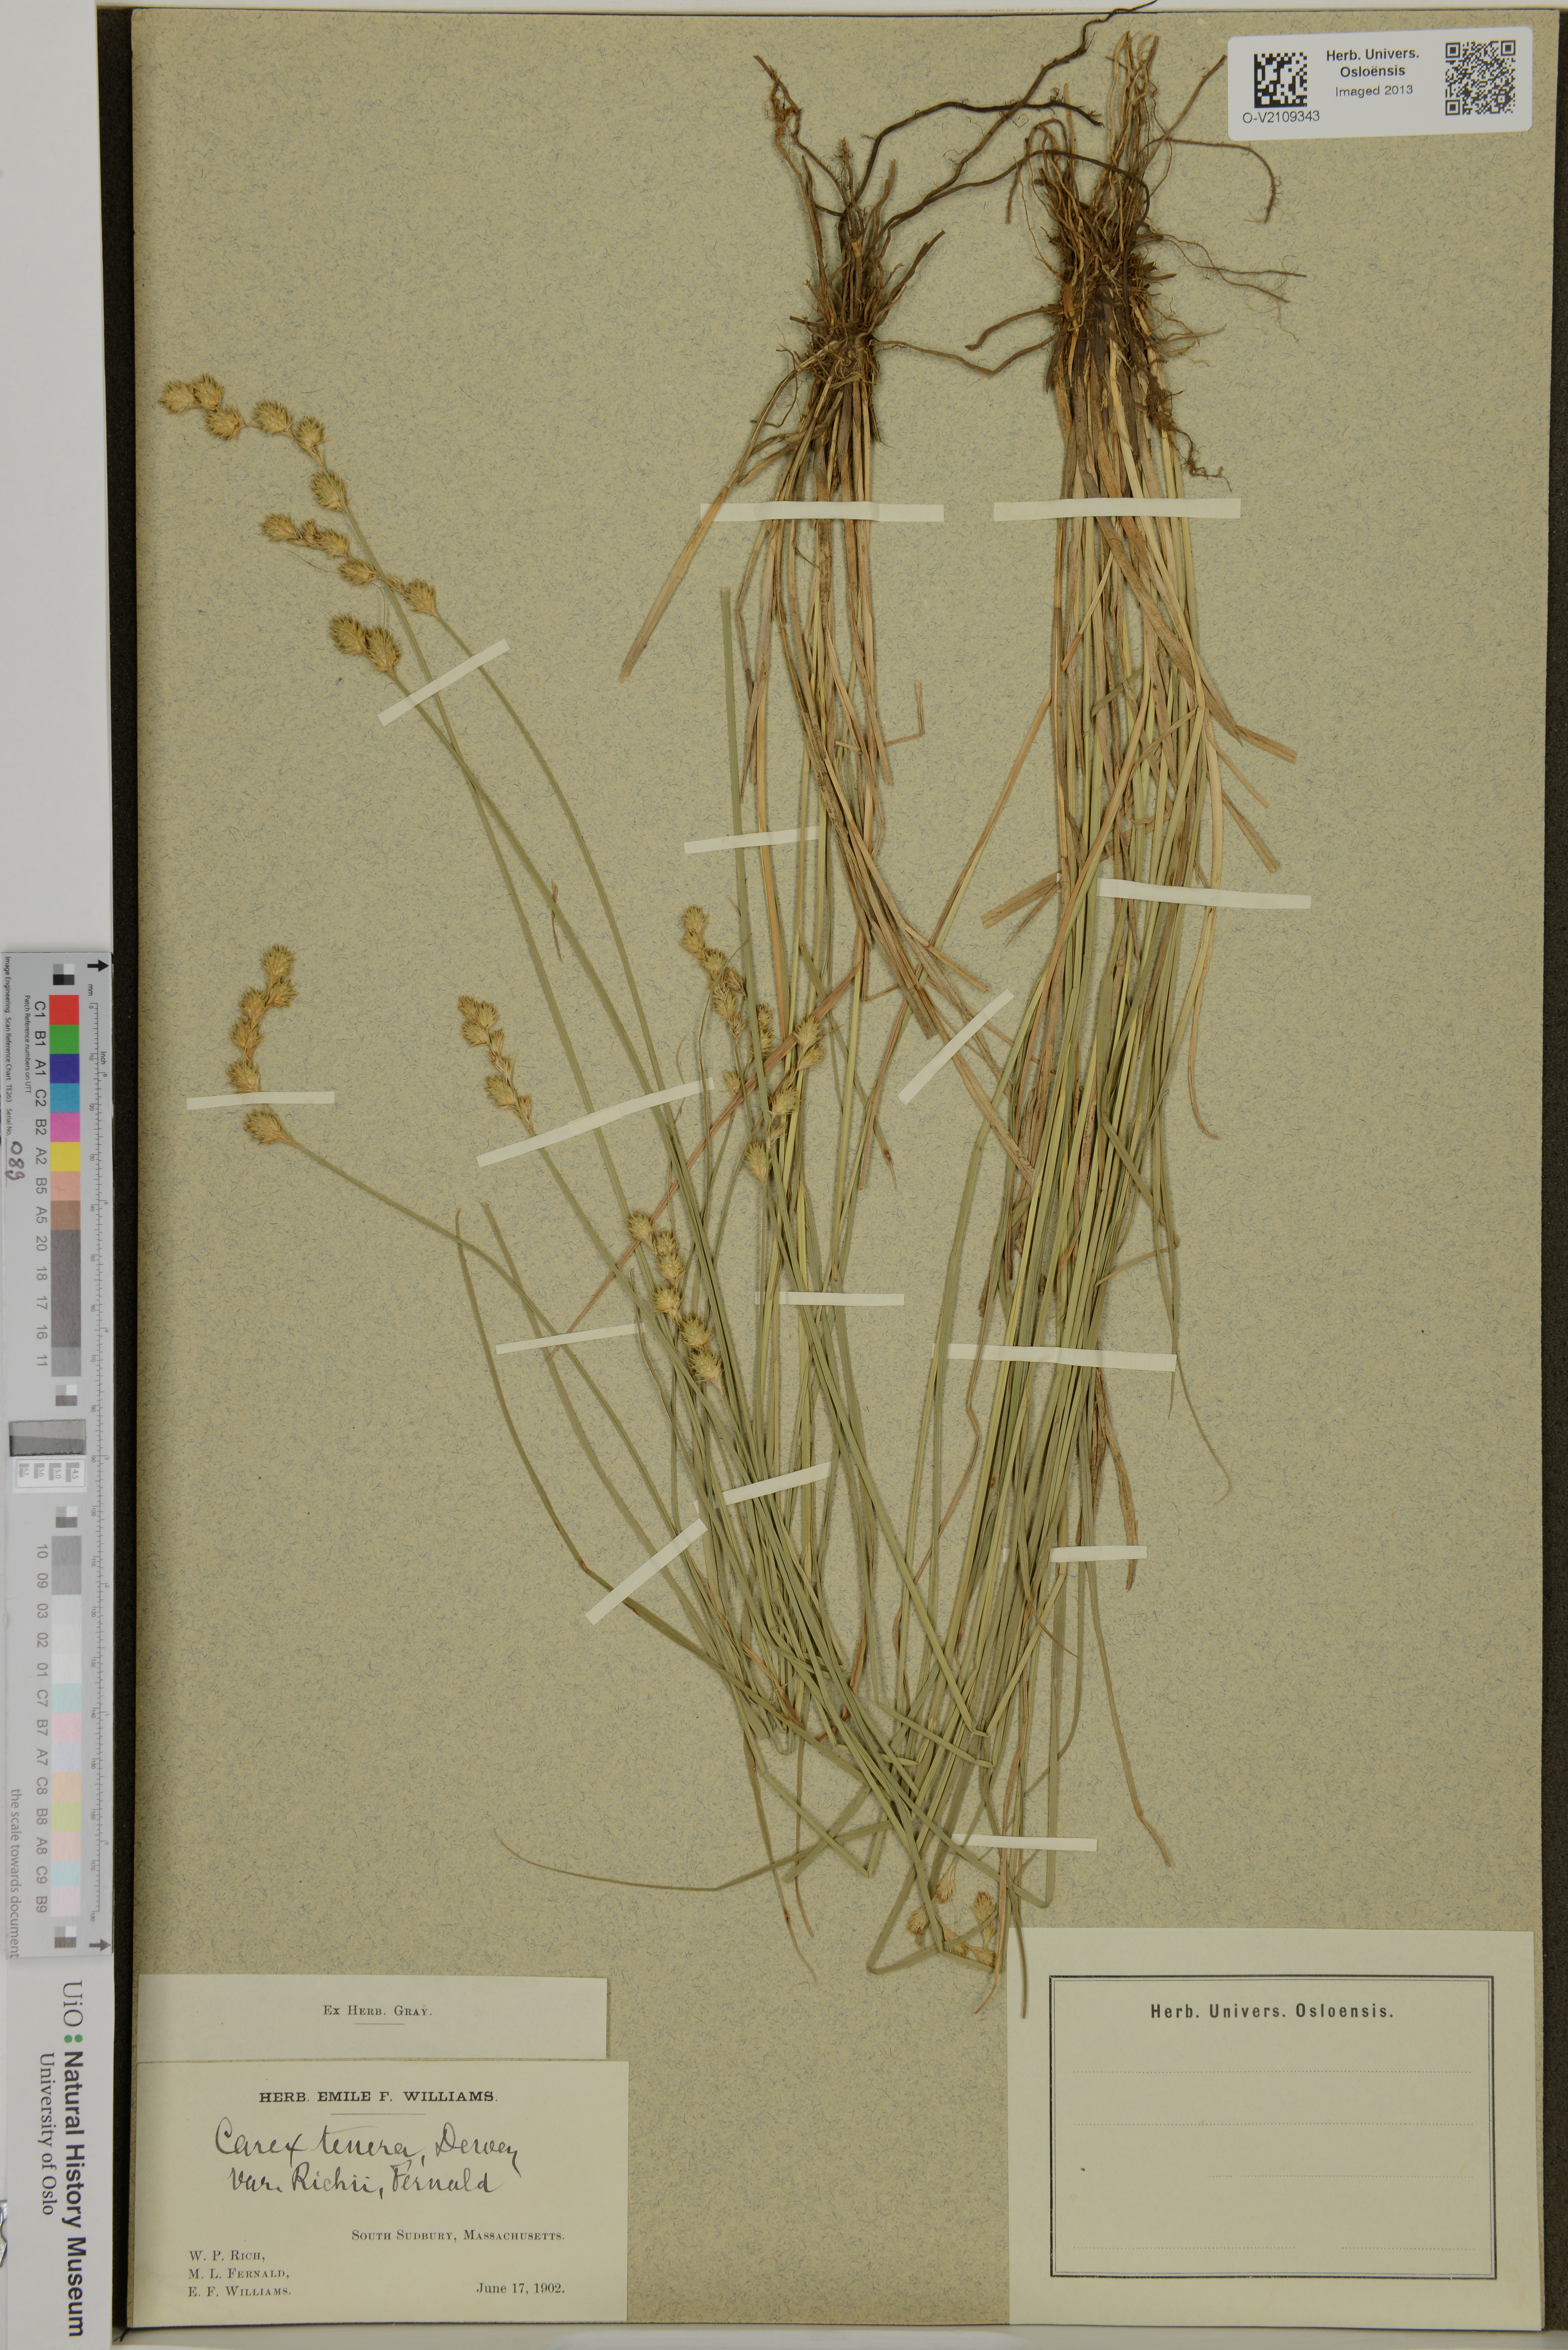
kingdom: Plantae
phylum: Tracheophyta
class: Liliopsida
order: Poales
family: Cyperaceae
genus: Carex
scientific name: Carex tenera
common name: Broad-fruited sedge
